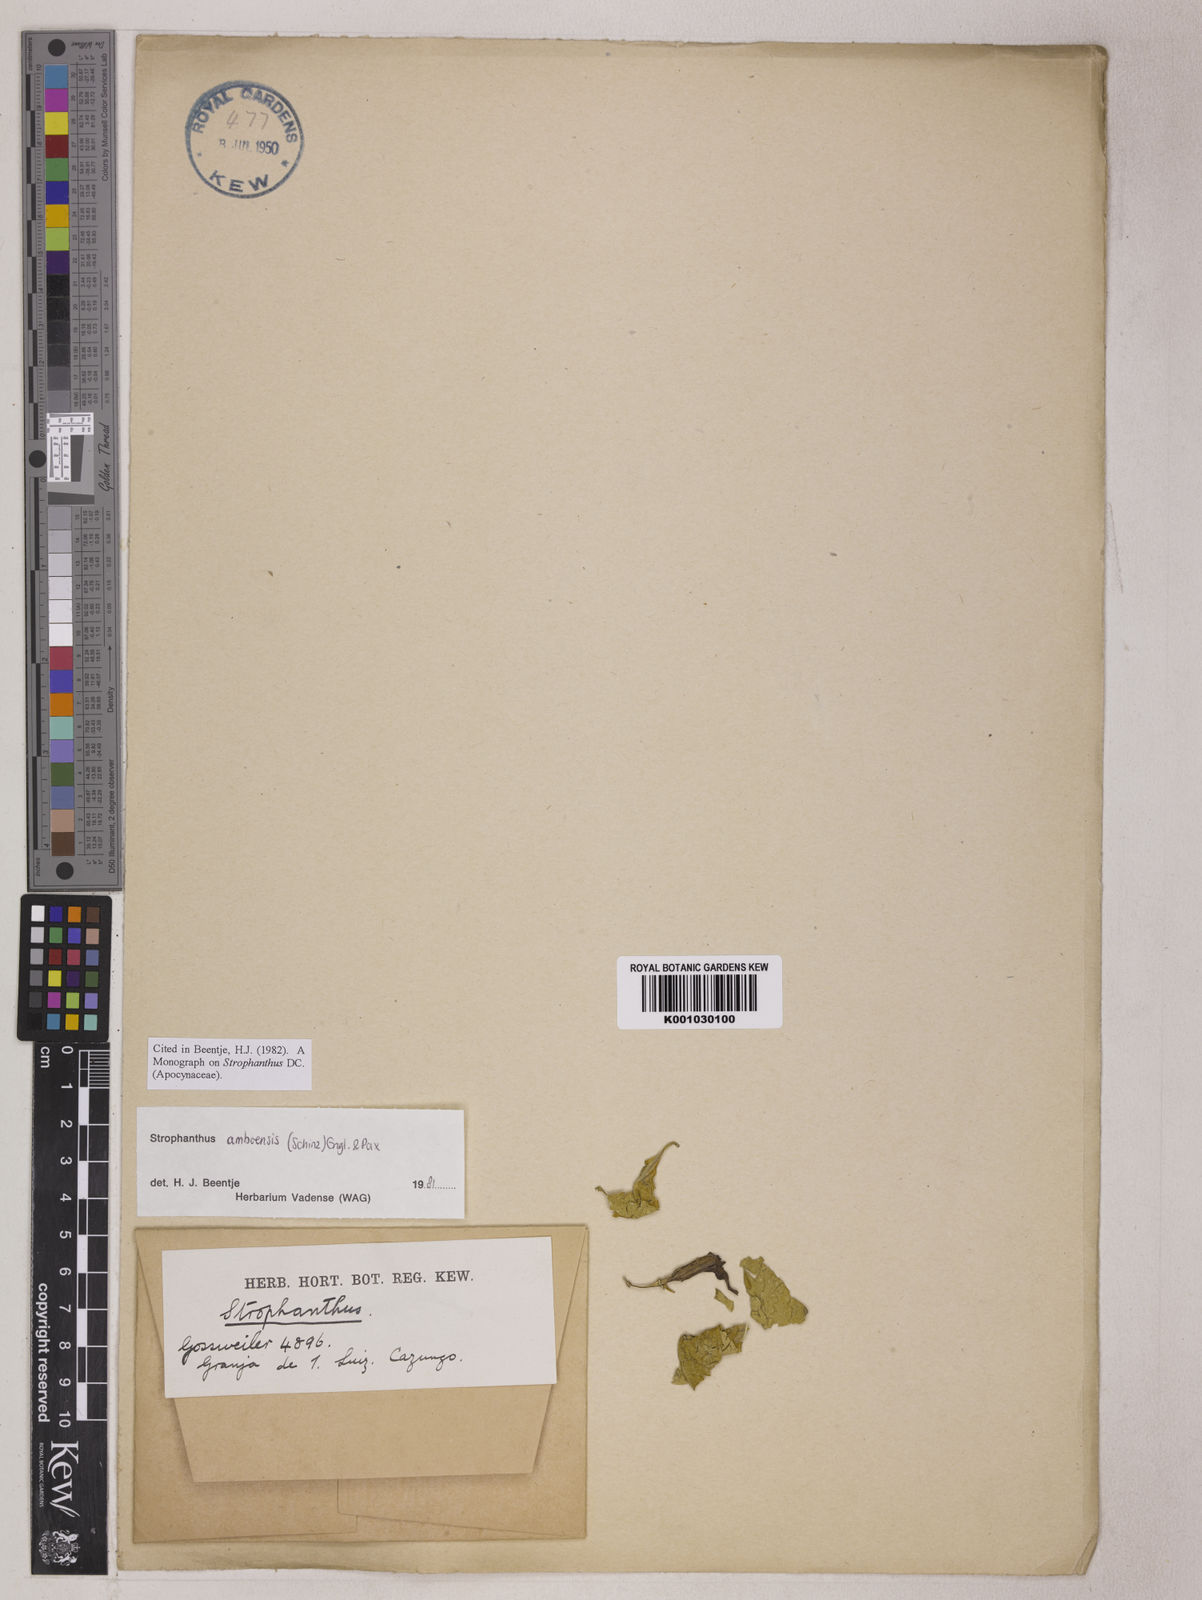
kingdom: Plantae
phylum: Tracheophyta
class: Magnoliopsida
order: Gentianales
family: Apocynaceae
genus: Strophanthus
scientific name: Strophanthus amboensis
